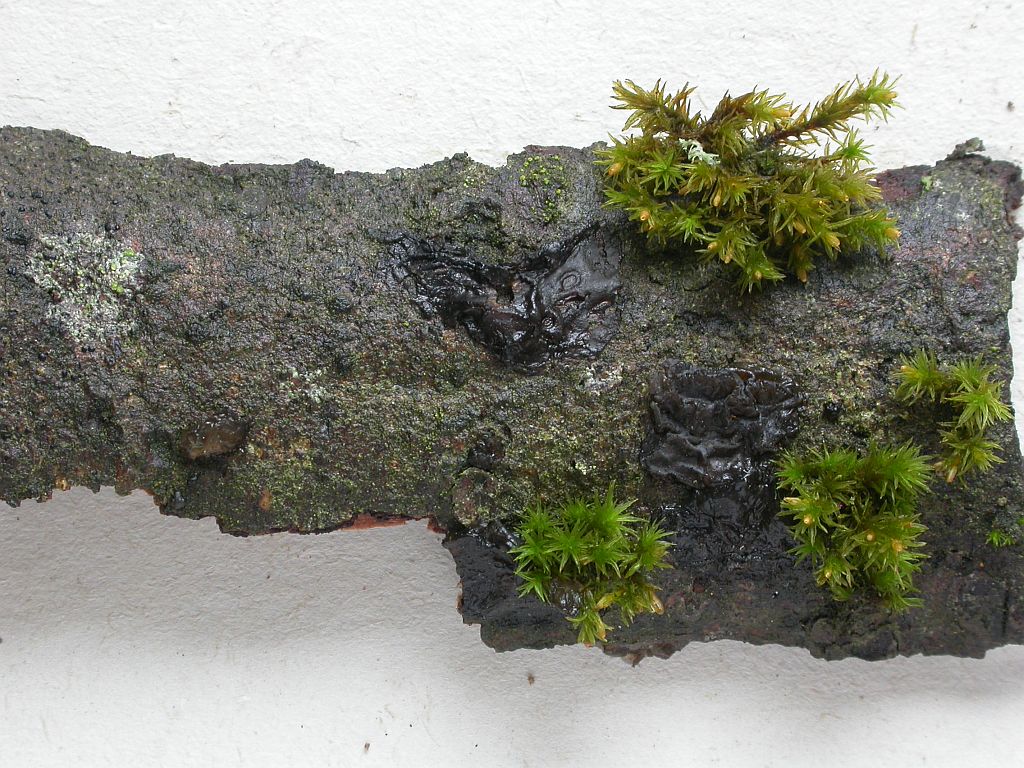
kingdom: Fungi
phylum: Basidiomycota
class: Agaricomycetes
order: Auriculariales
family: Auriculariaceae
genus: Exidia
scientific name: Exidia nigricans
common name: almindelig bævretop
